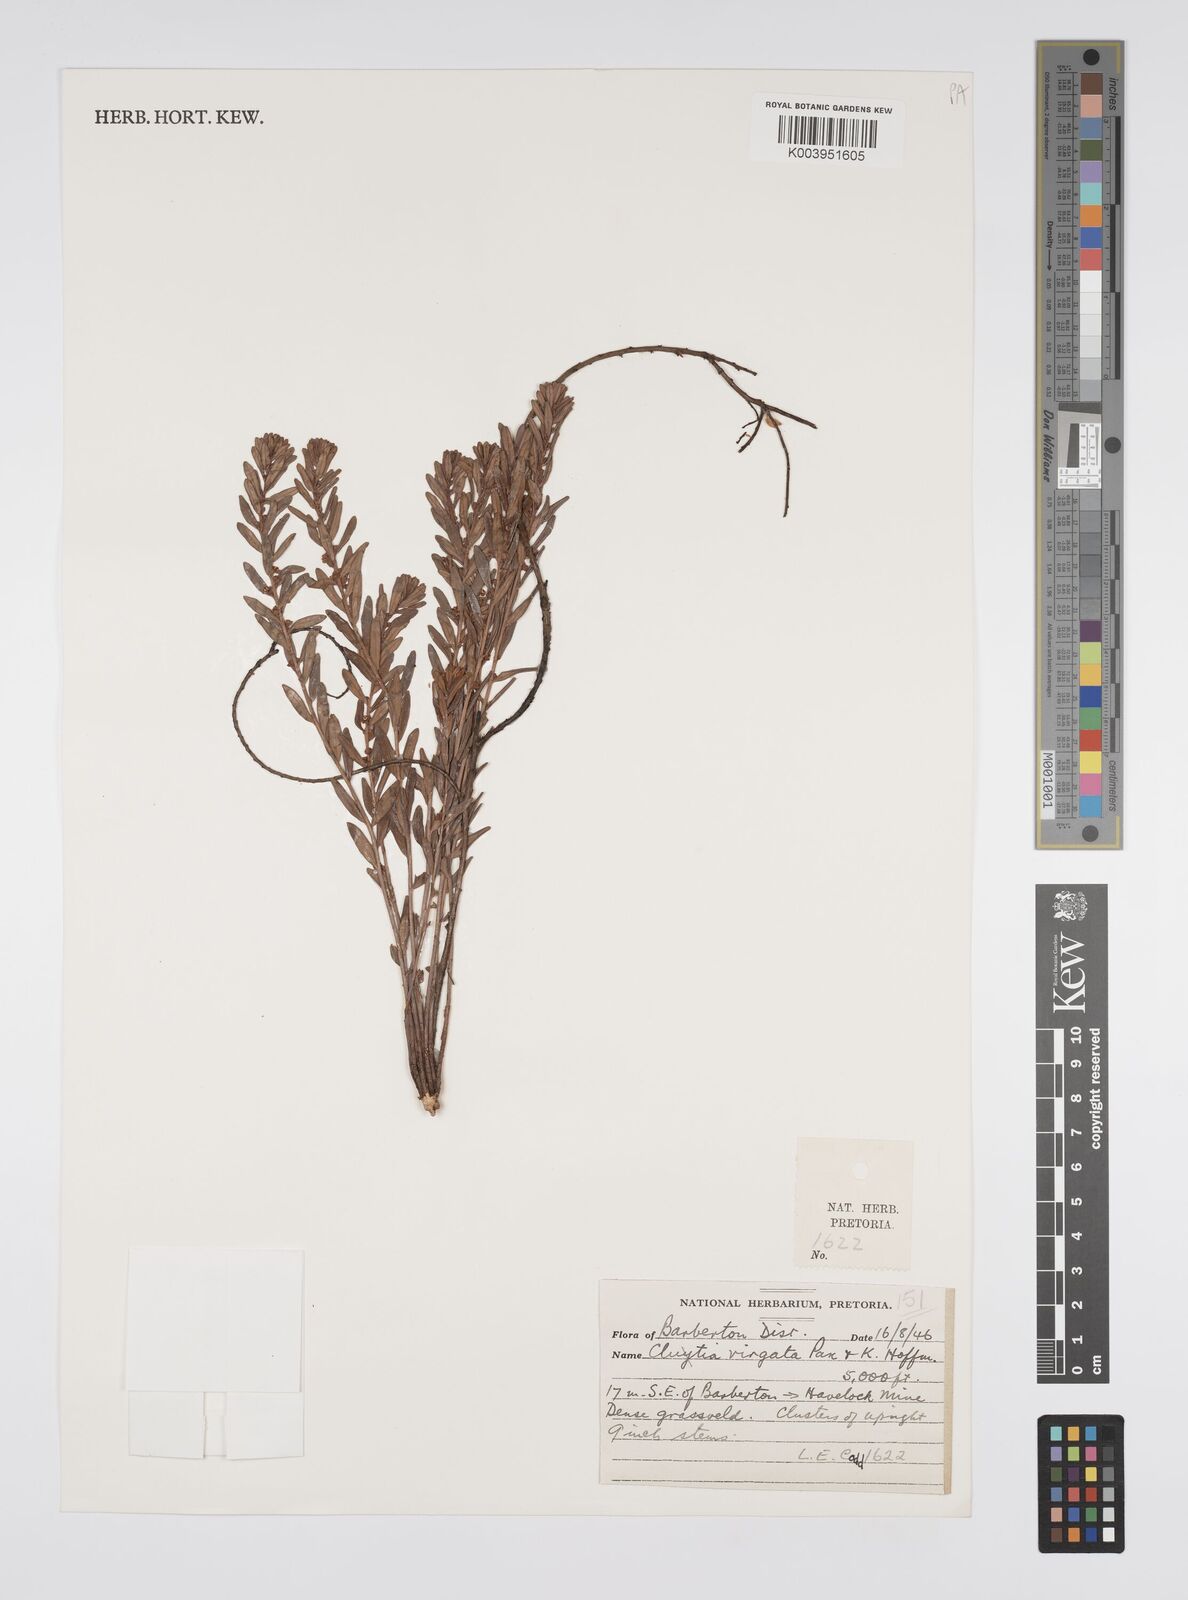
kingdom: Plantae
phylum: Tracheophyta
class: Magnoliopsida
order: Malpighiales
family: Peraceae
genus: Clutia
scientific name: Clutia virgata
